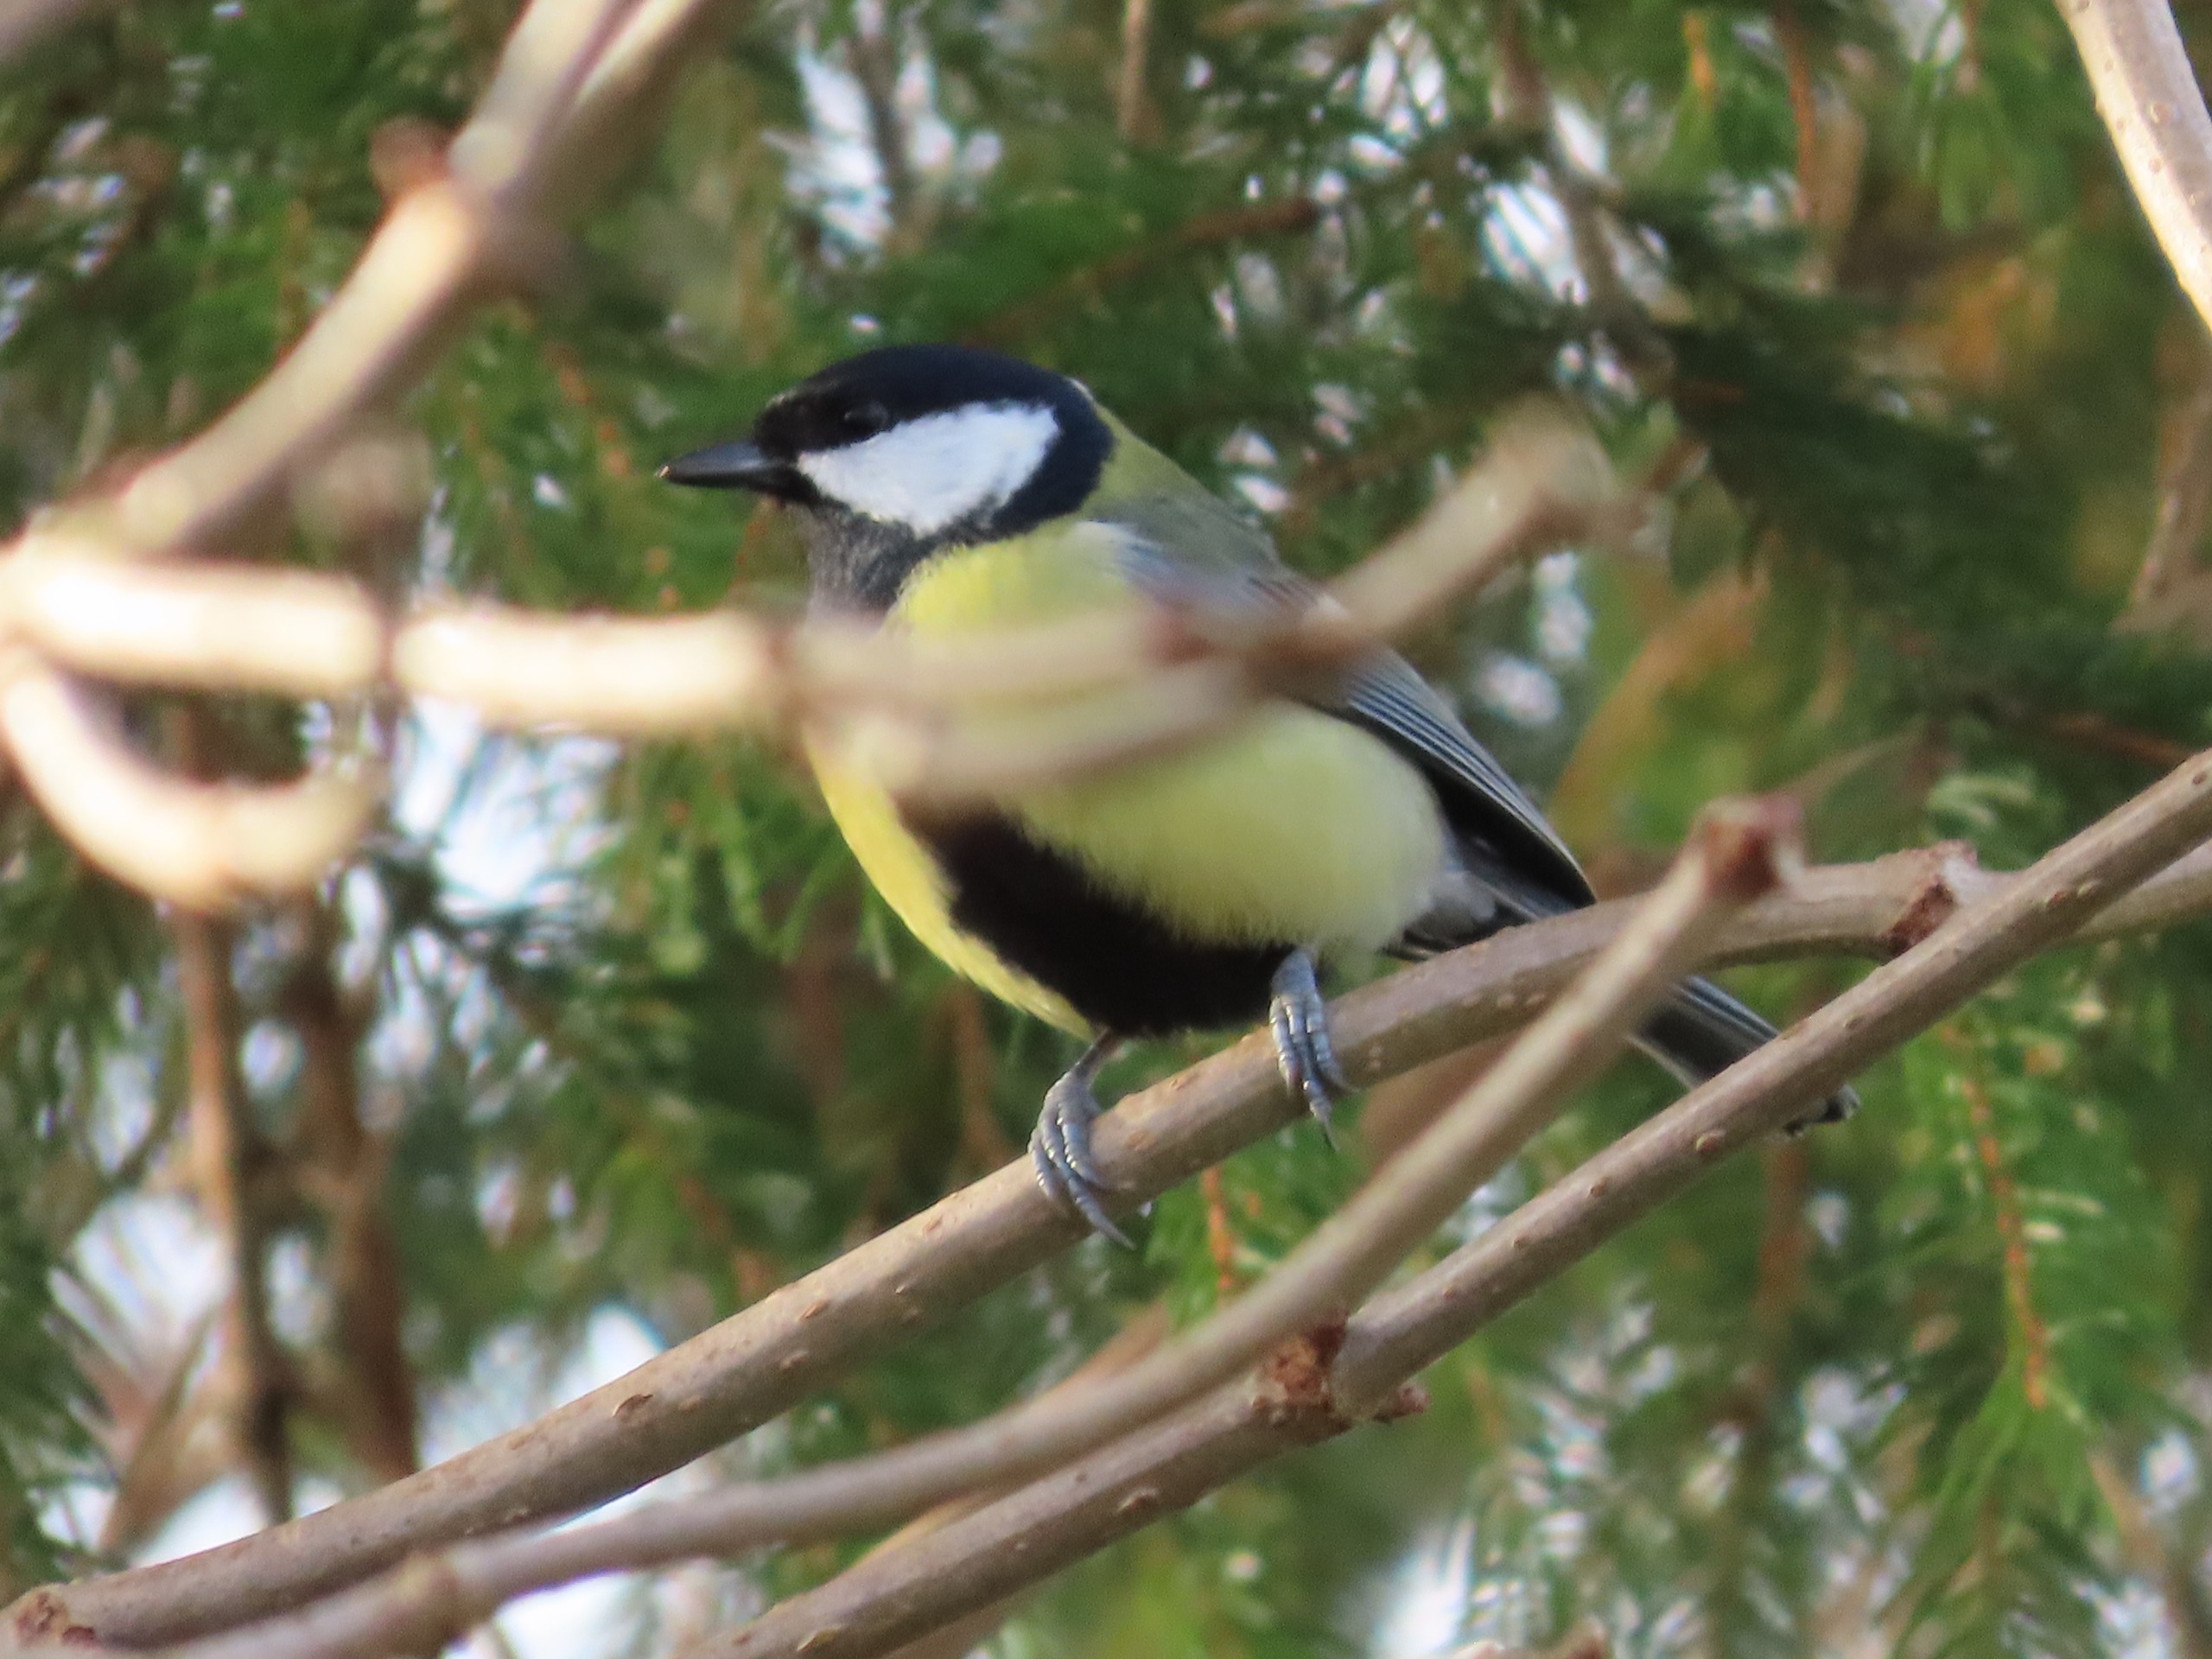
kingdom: Animalia
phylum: Chordata
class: Aves
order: Passeriformes
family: Paridae
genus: Parus
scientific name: Parus major
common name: Musvit
